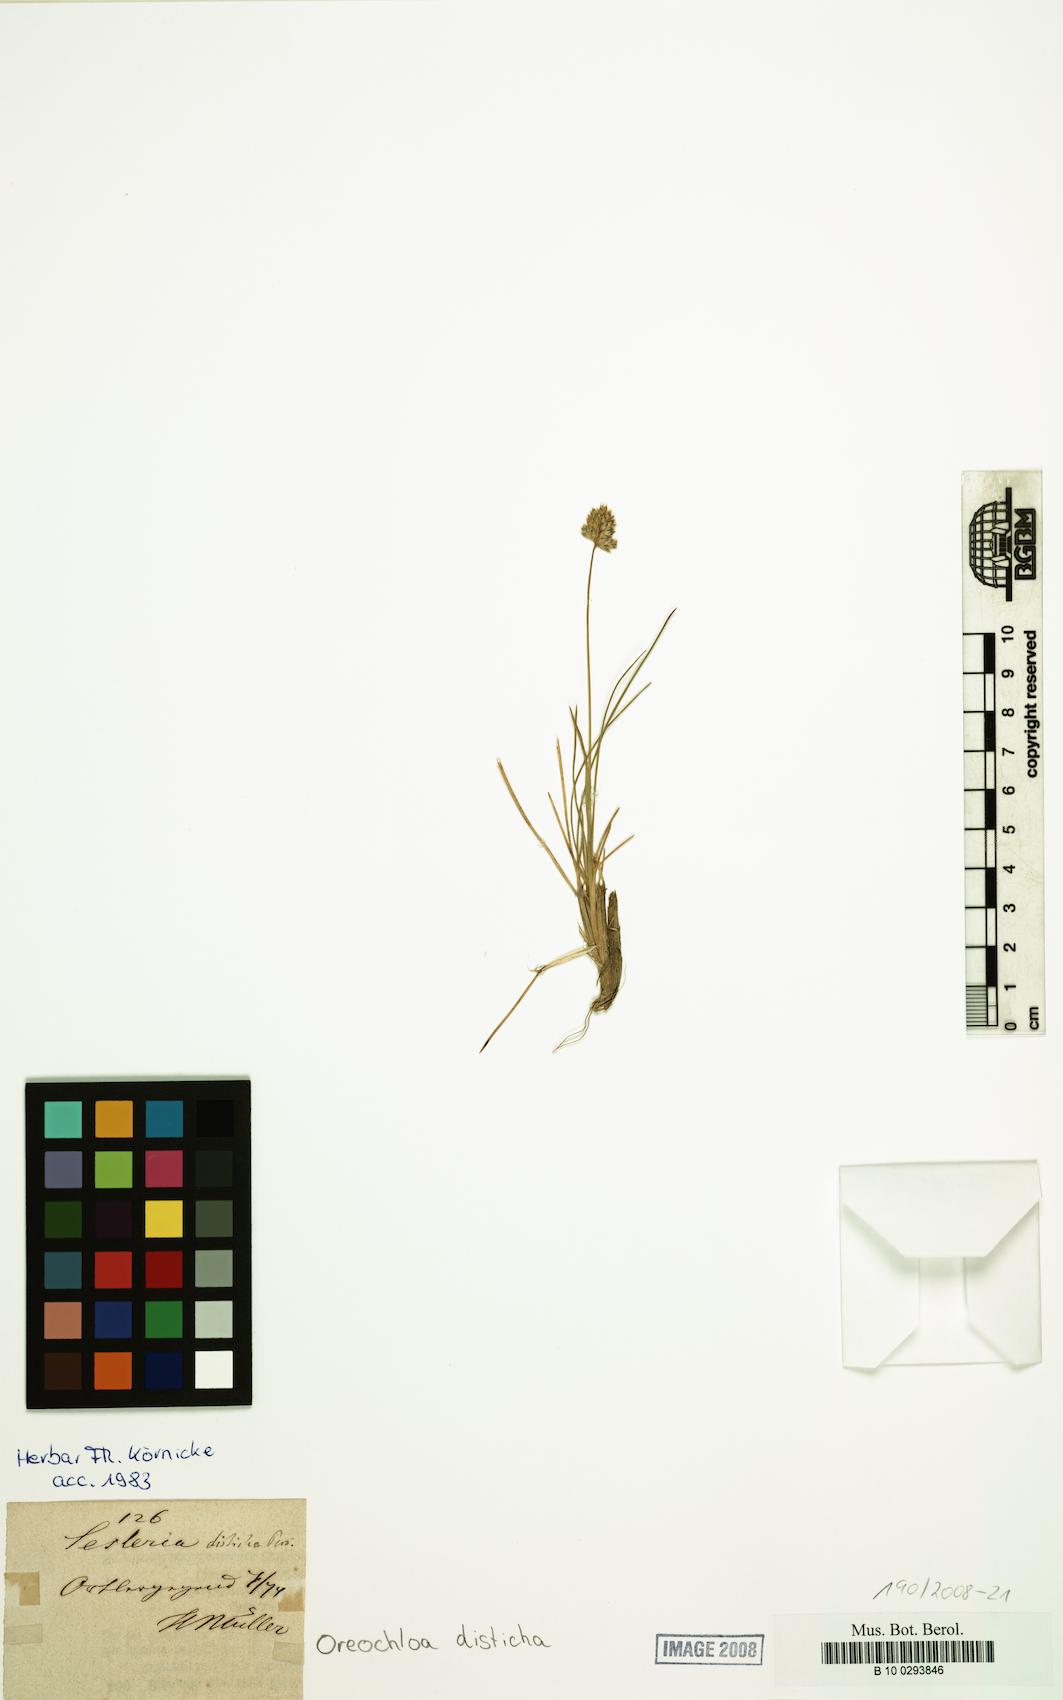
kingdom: Plantae
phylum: Tracheophyta
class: Liliopsida
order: Poales
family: Poaceae
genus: Oreochloa
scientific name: Oreochloa disticha
